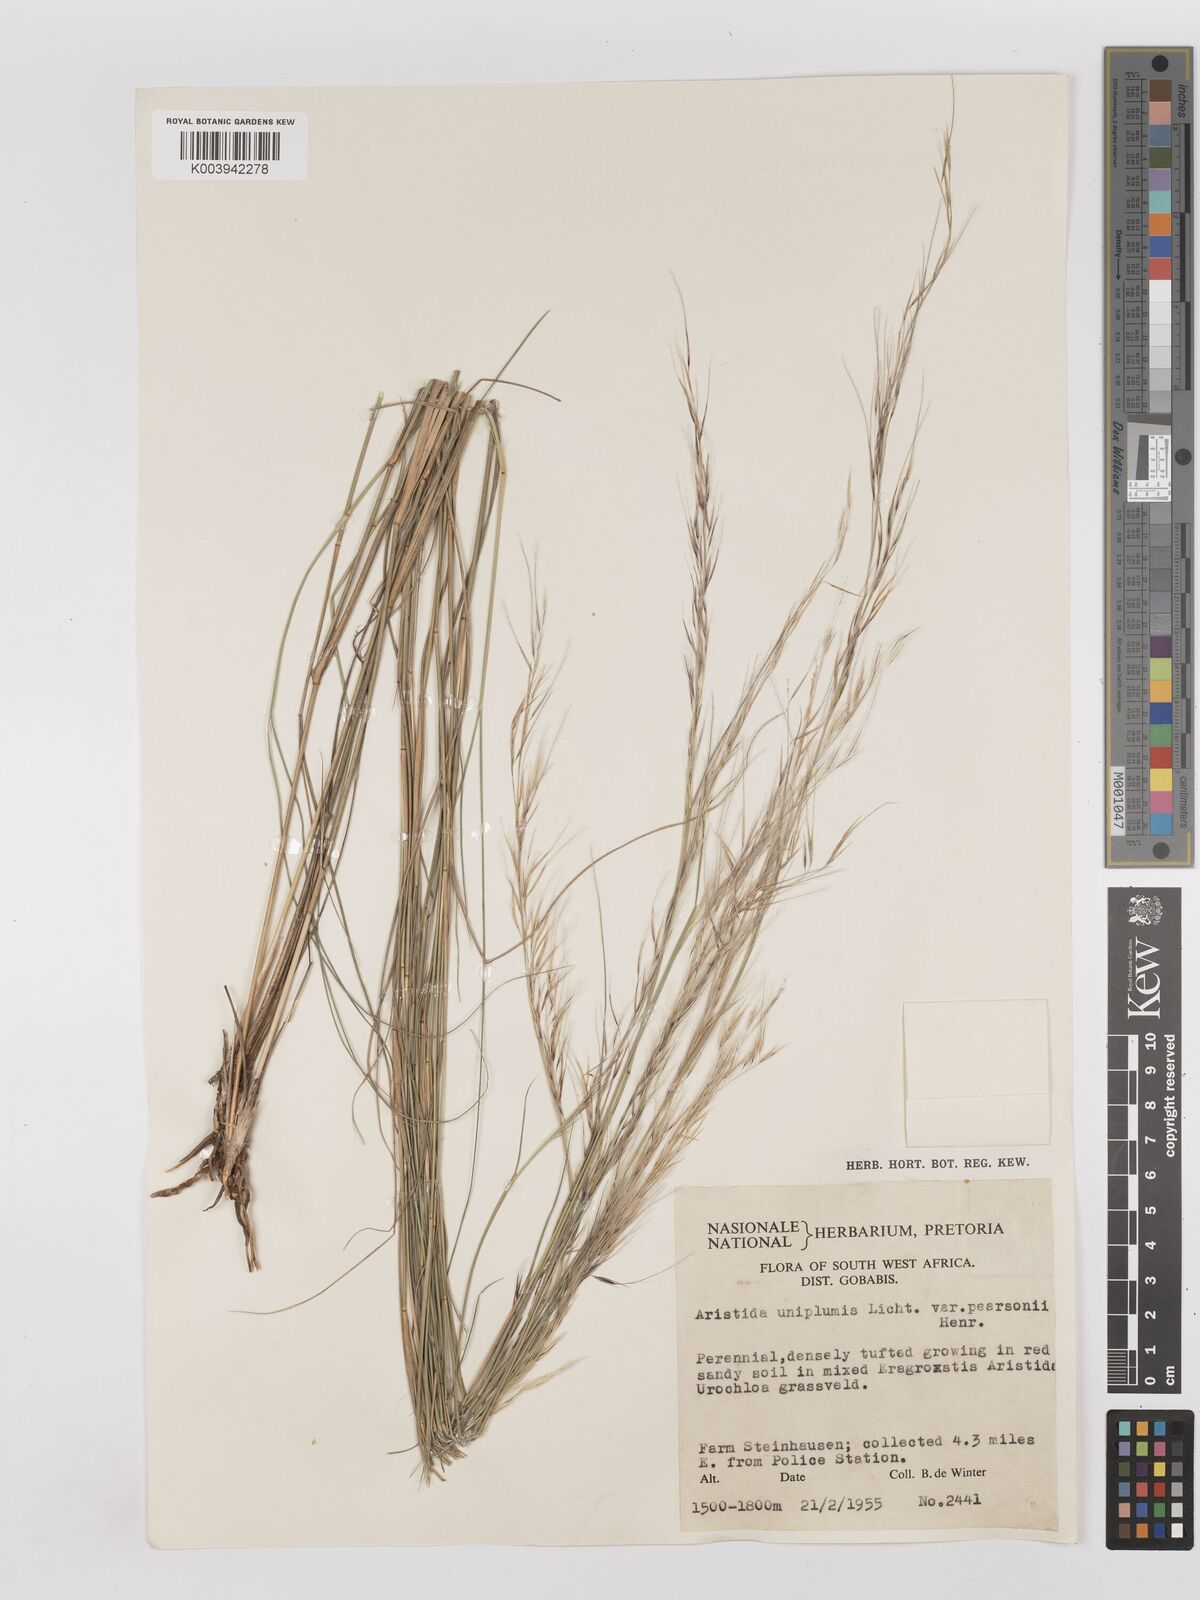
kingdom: Plantae
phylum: Tracheophyta
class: Liliopsida
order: Poales
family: Poaceae
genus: Stipagrostis
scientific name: Stipagrostis uniplumis
